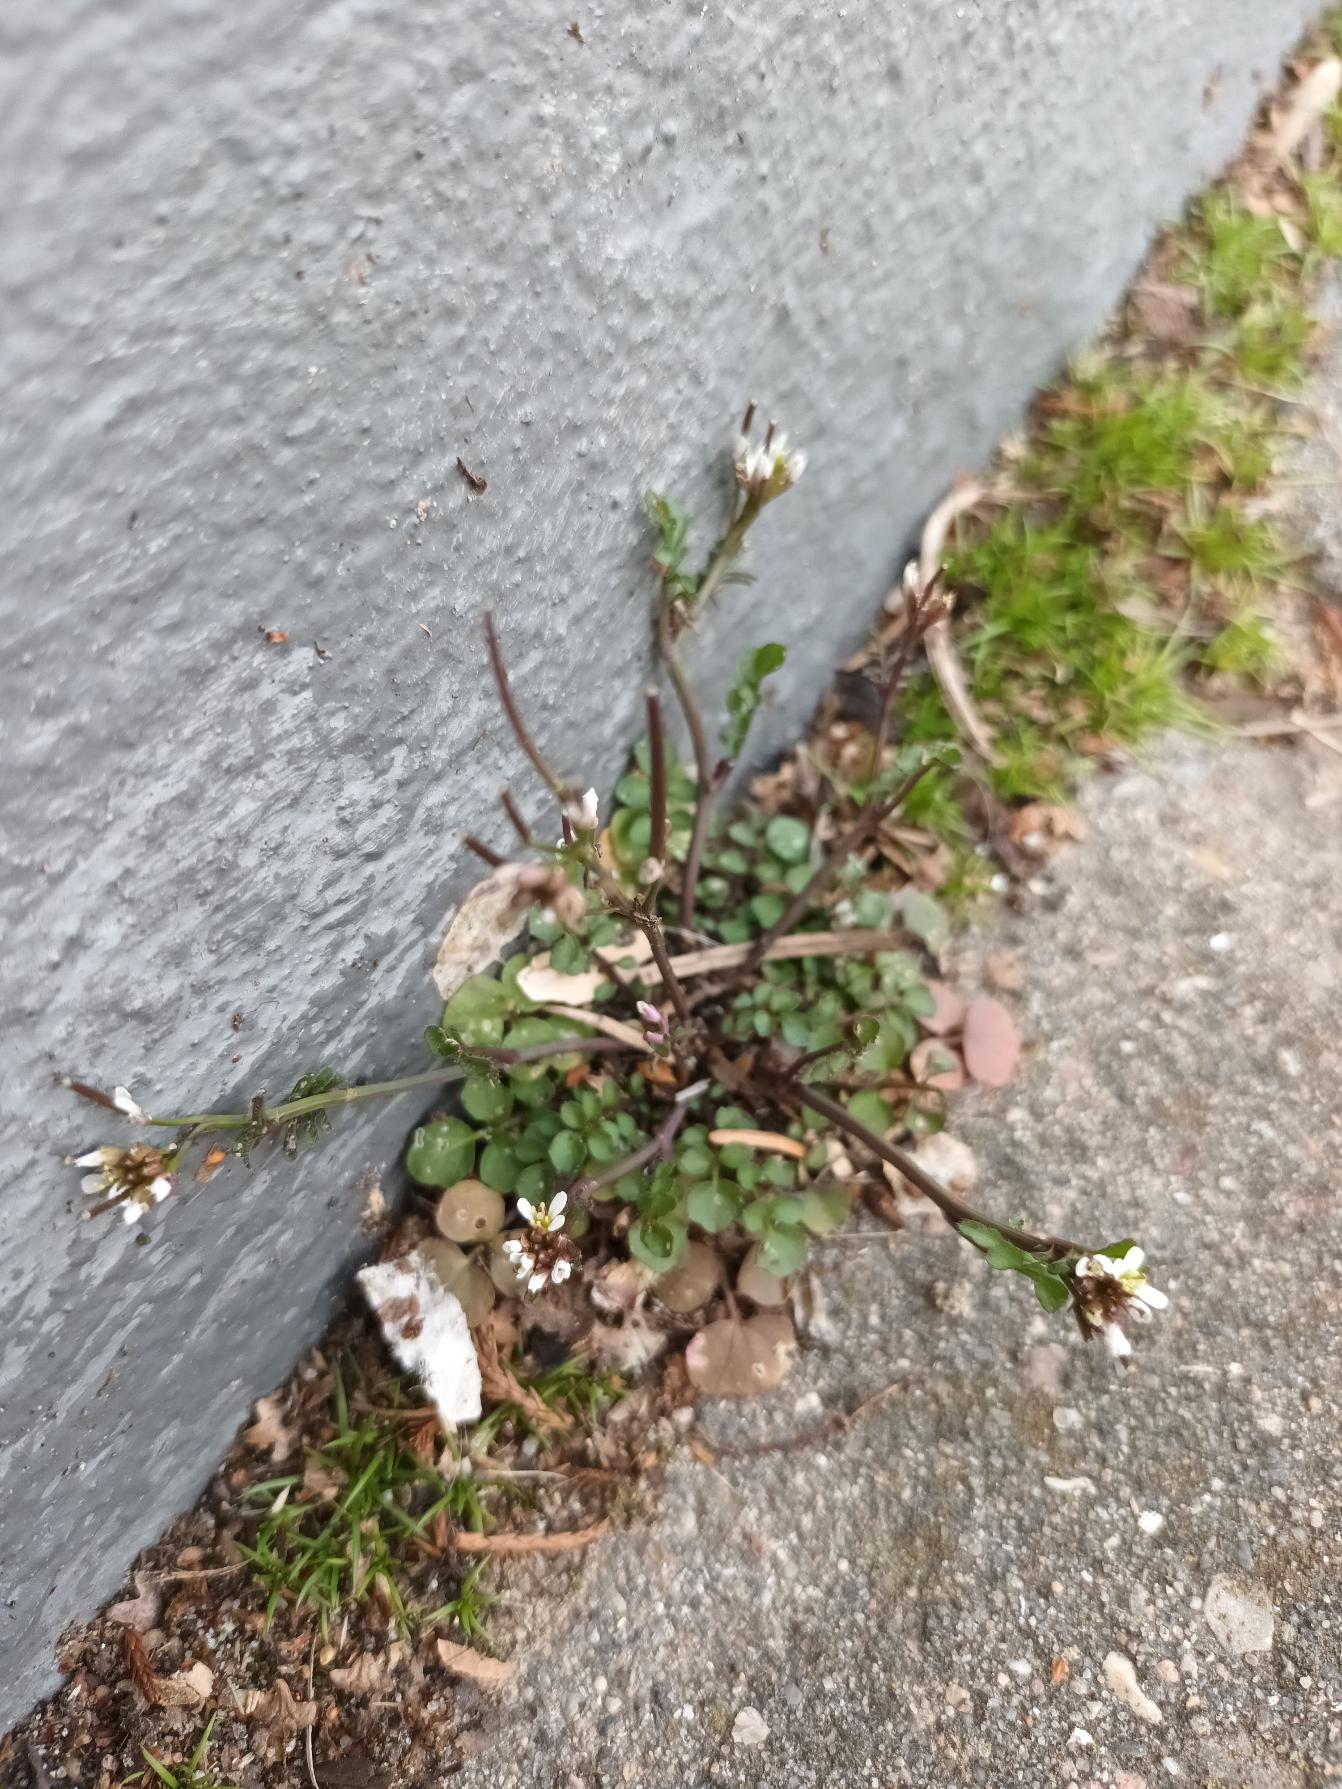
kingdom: Plantae
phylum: Tracheophyta
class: Magnoliopsida
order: Brassicales
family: Brassicaceae
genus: Cardamine
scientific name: Cardamine hirsuta
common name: Roset-springklap
